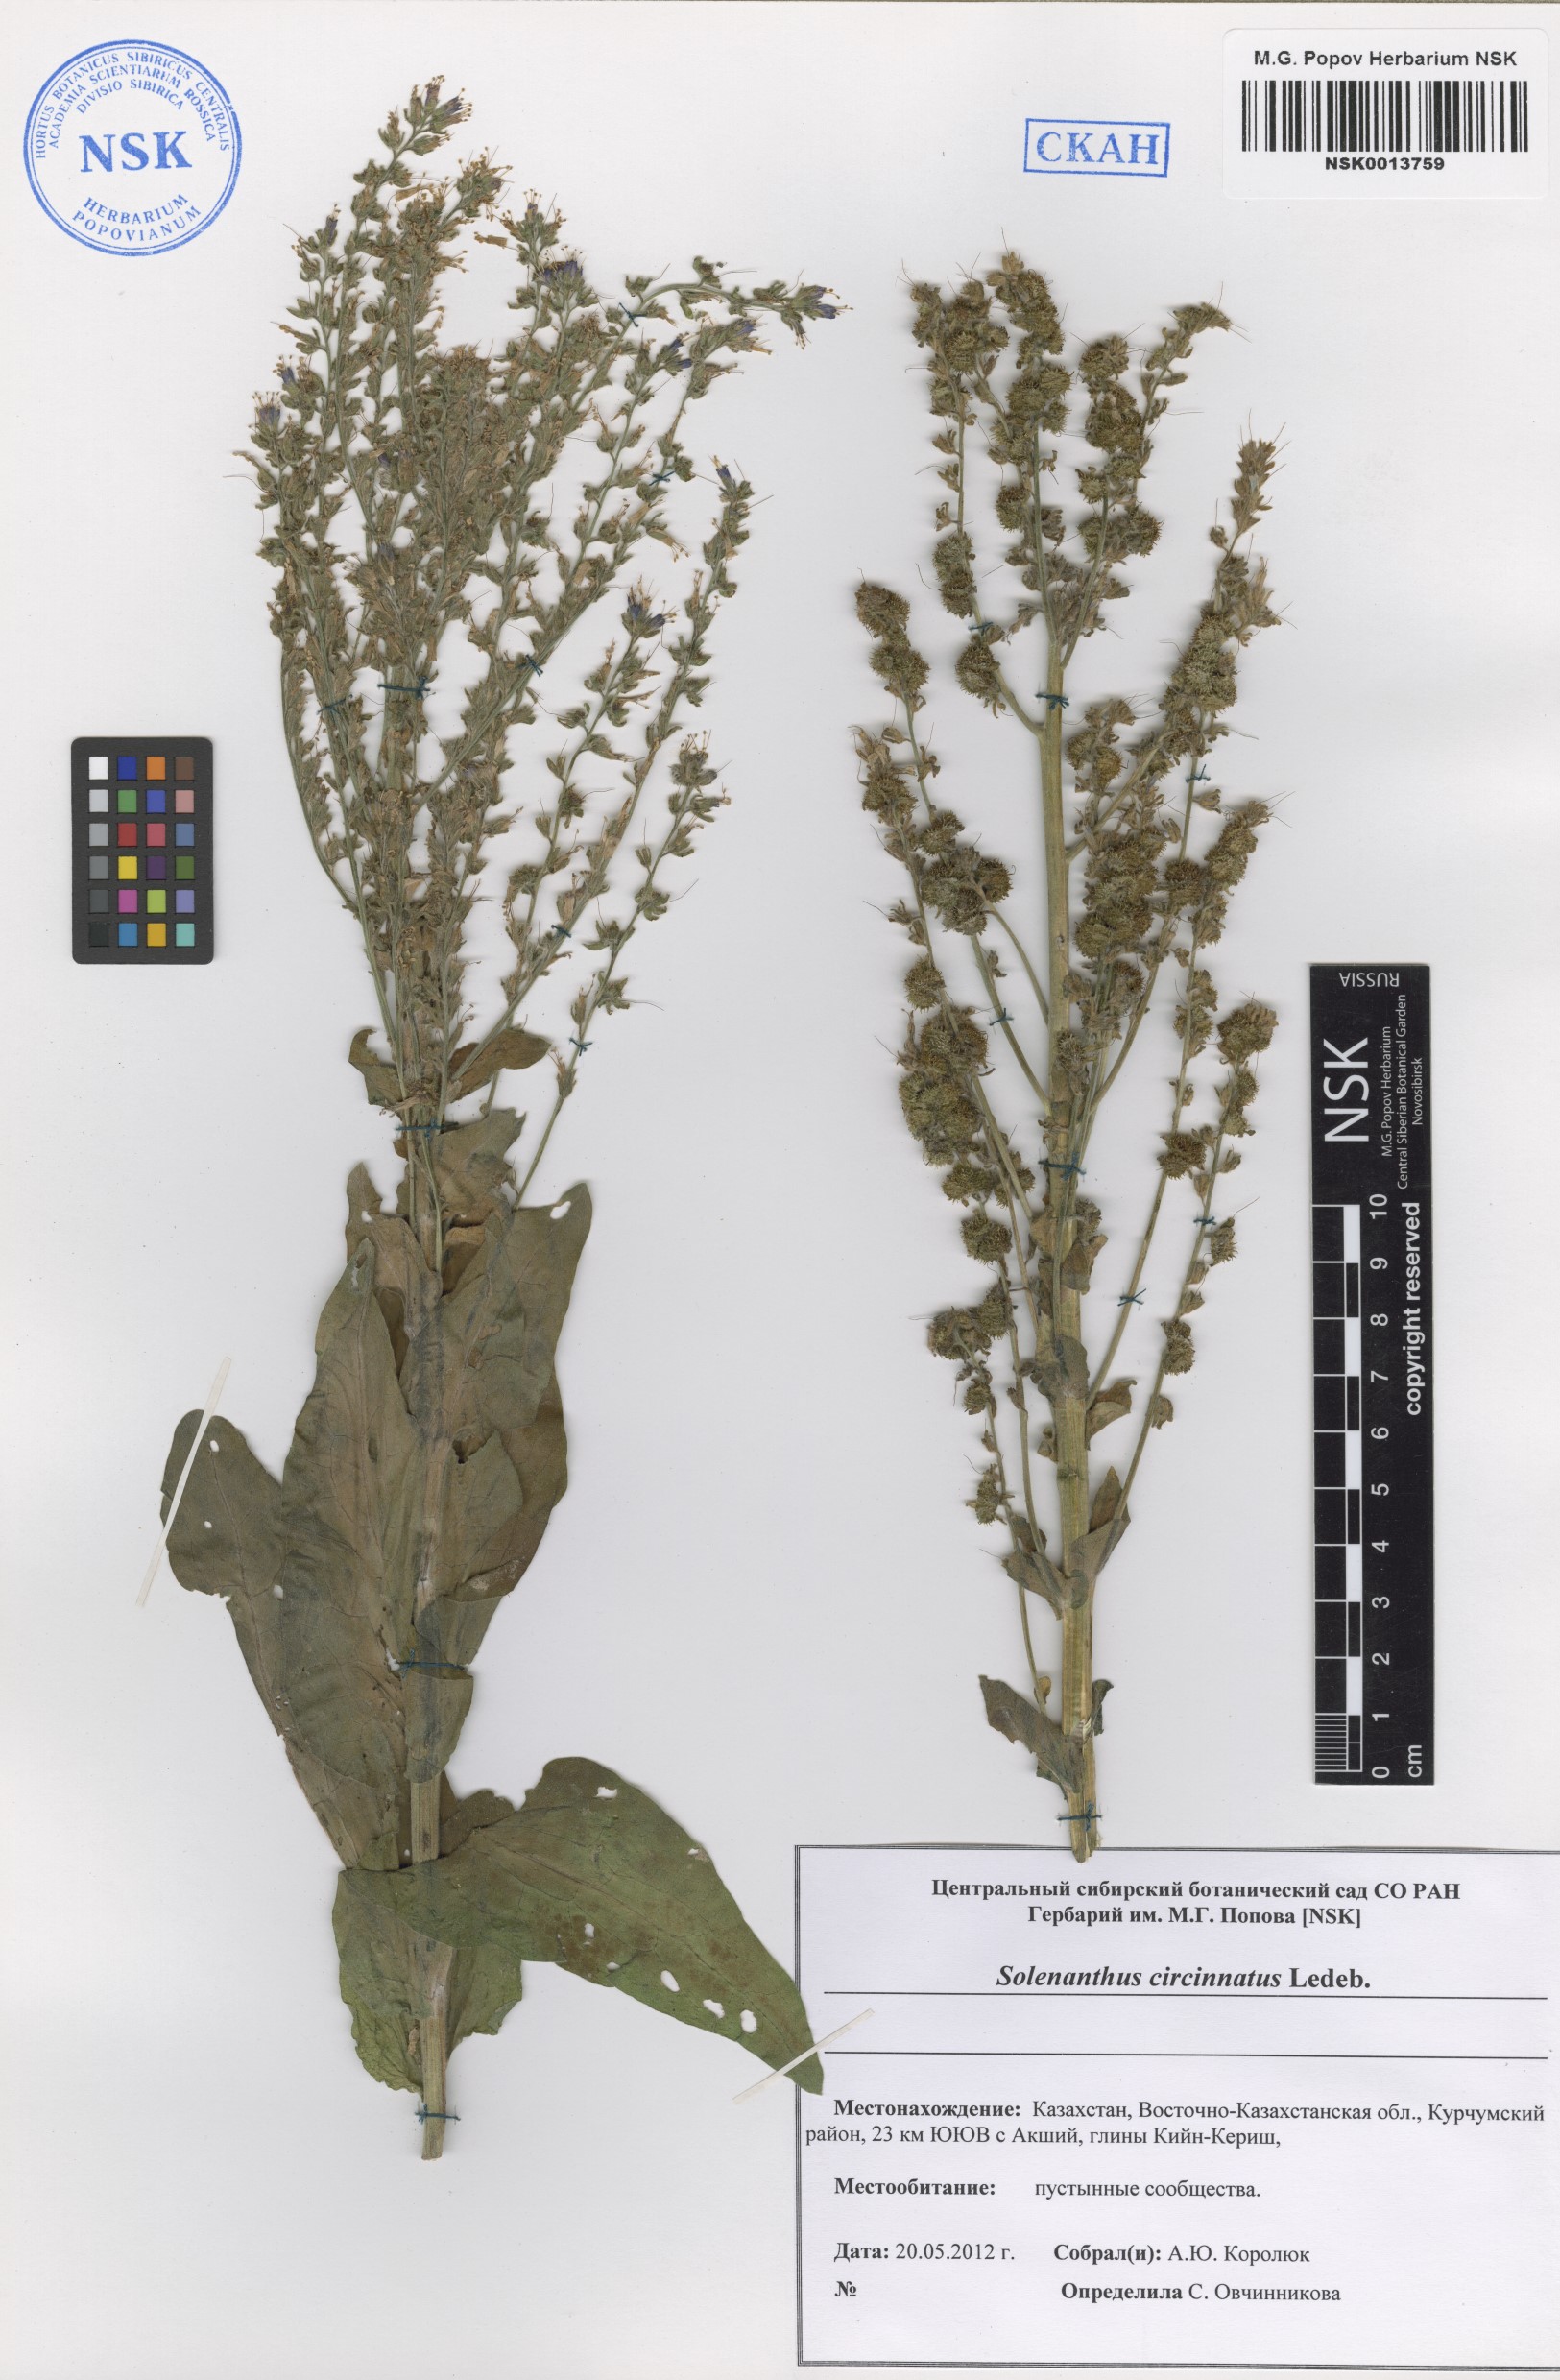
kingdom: Plantae
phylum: Tracheophyta
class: Magnoliopsida
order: Boraginales
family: Boraginaceae
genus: Solenanthus
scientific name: Solenanthus circinnatus
